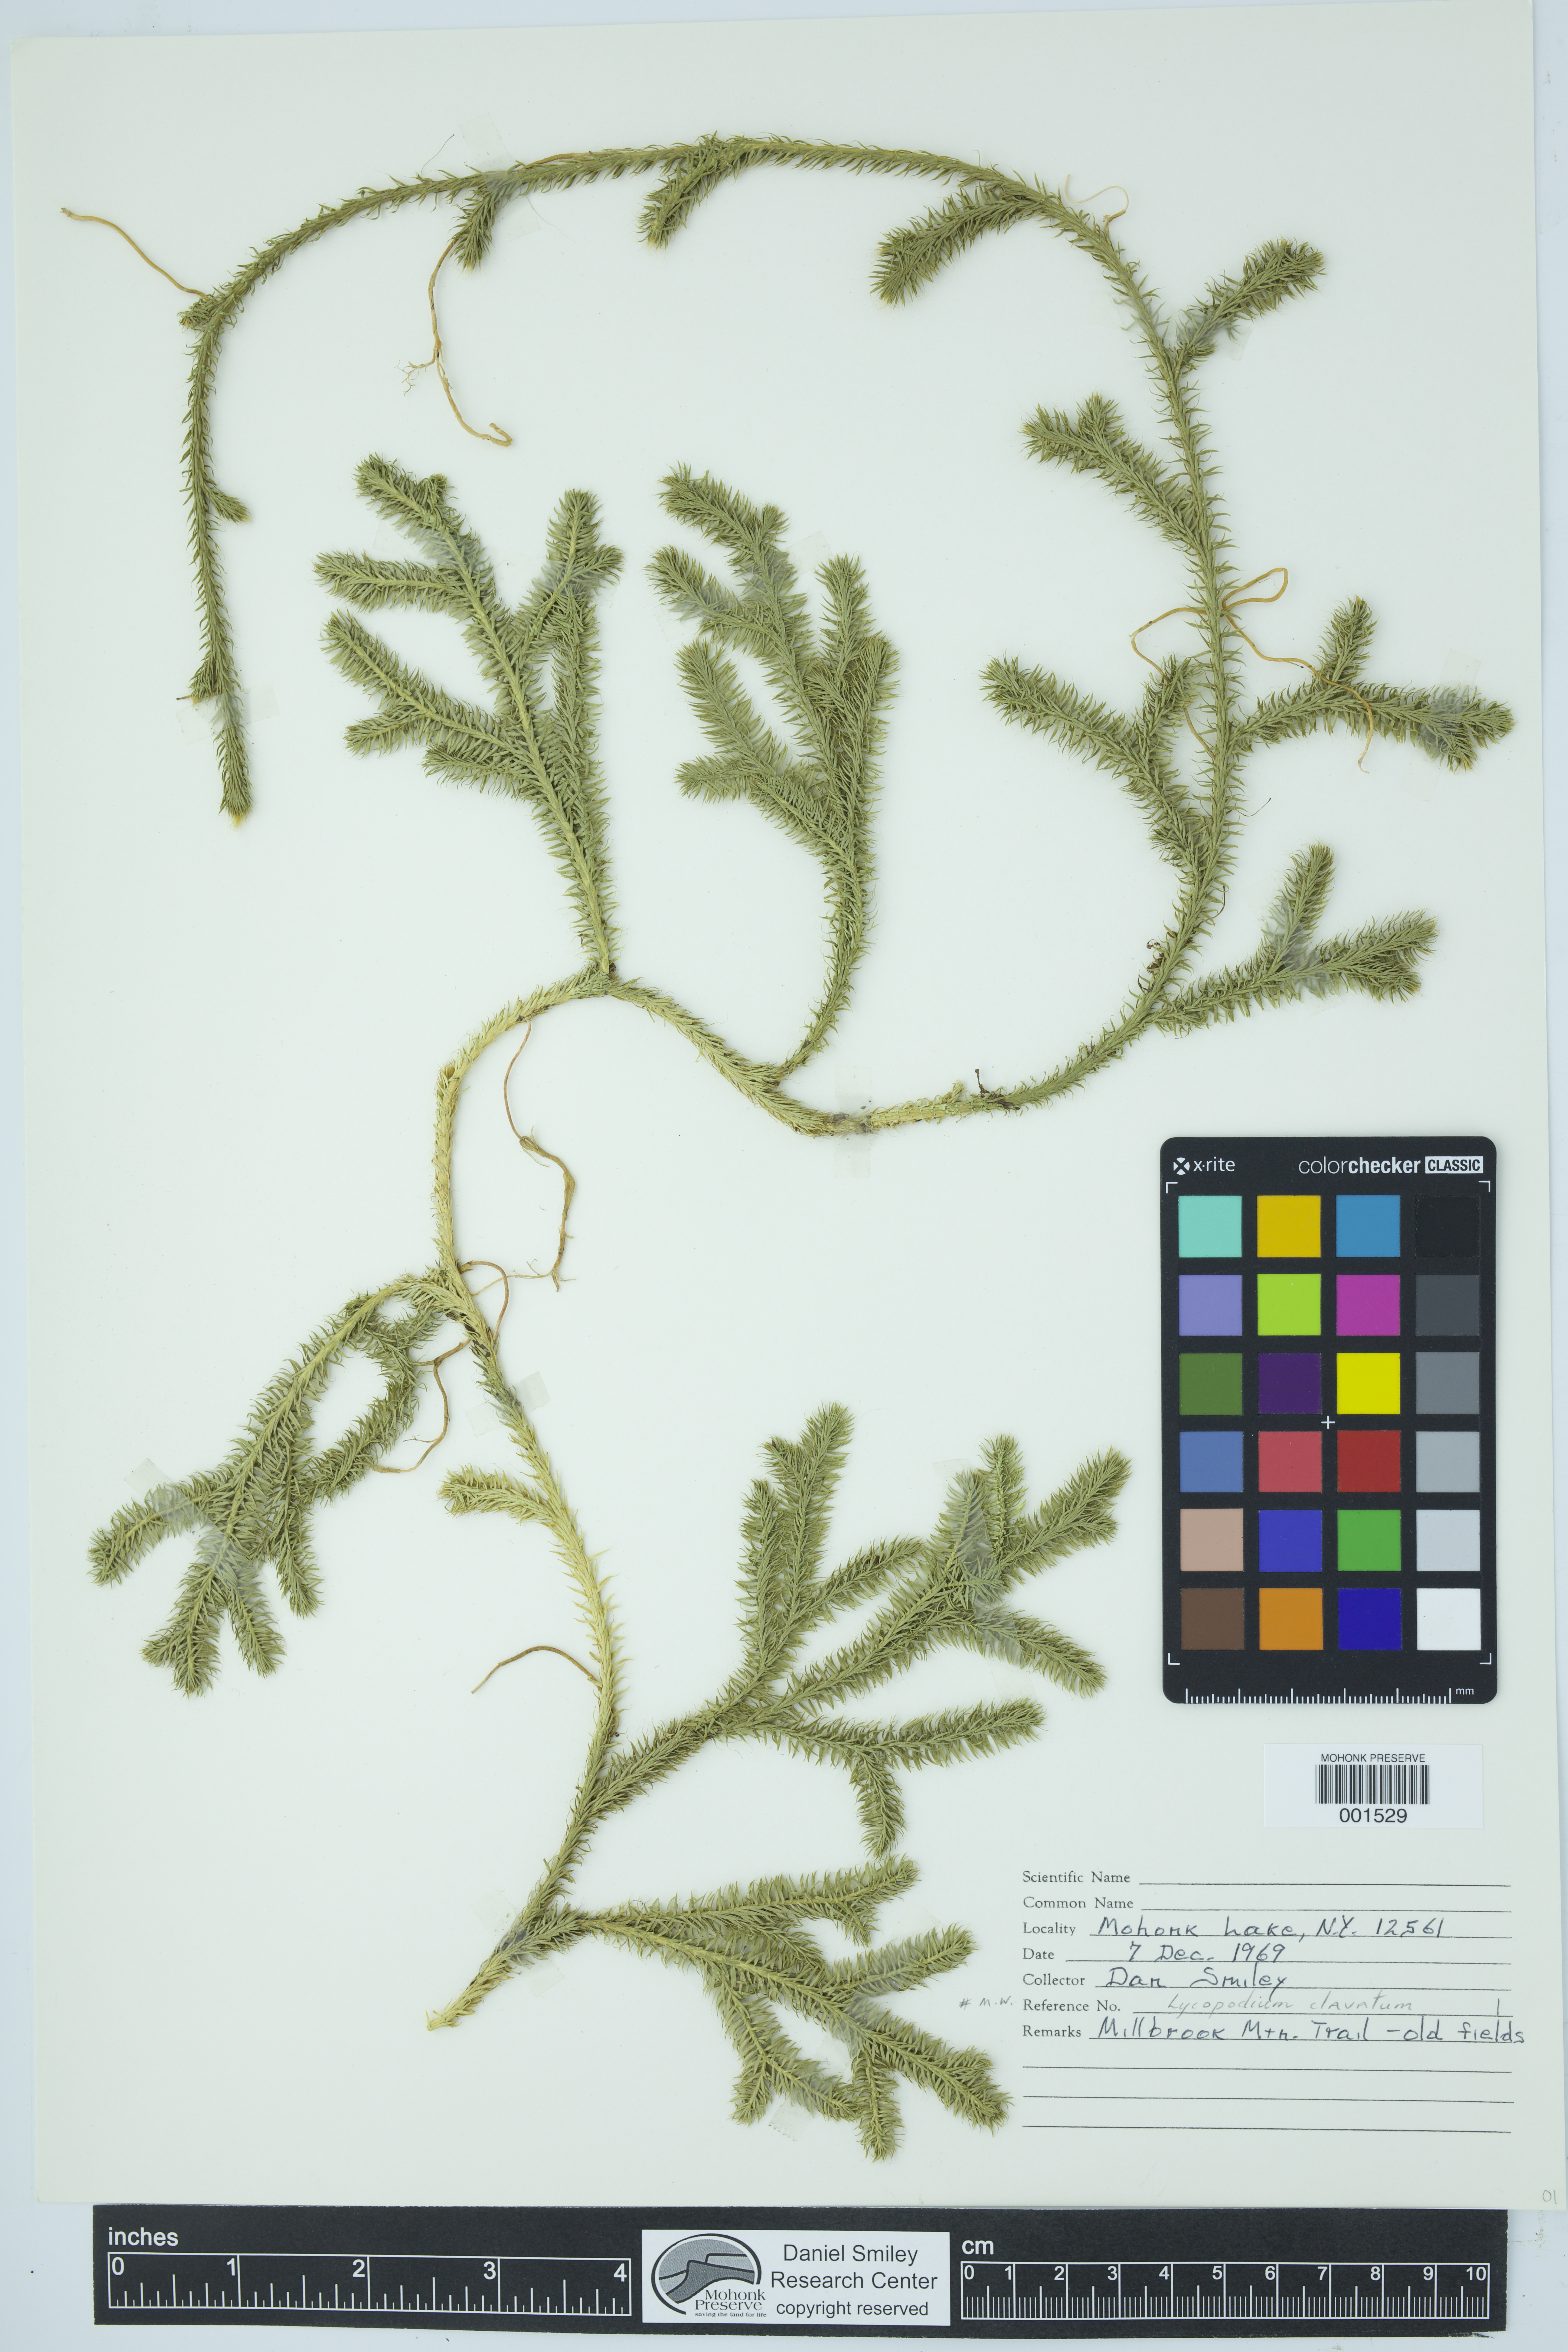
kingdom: Plantae
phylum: Tracheophyta
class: Lycopodiopsida
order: Lycopodiales
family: Lycopodiaceae
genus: Lycopodium
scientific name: Lycopodium clavatum
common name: Stag's-horn clubmoss
